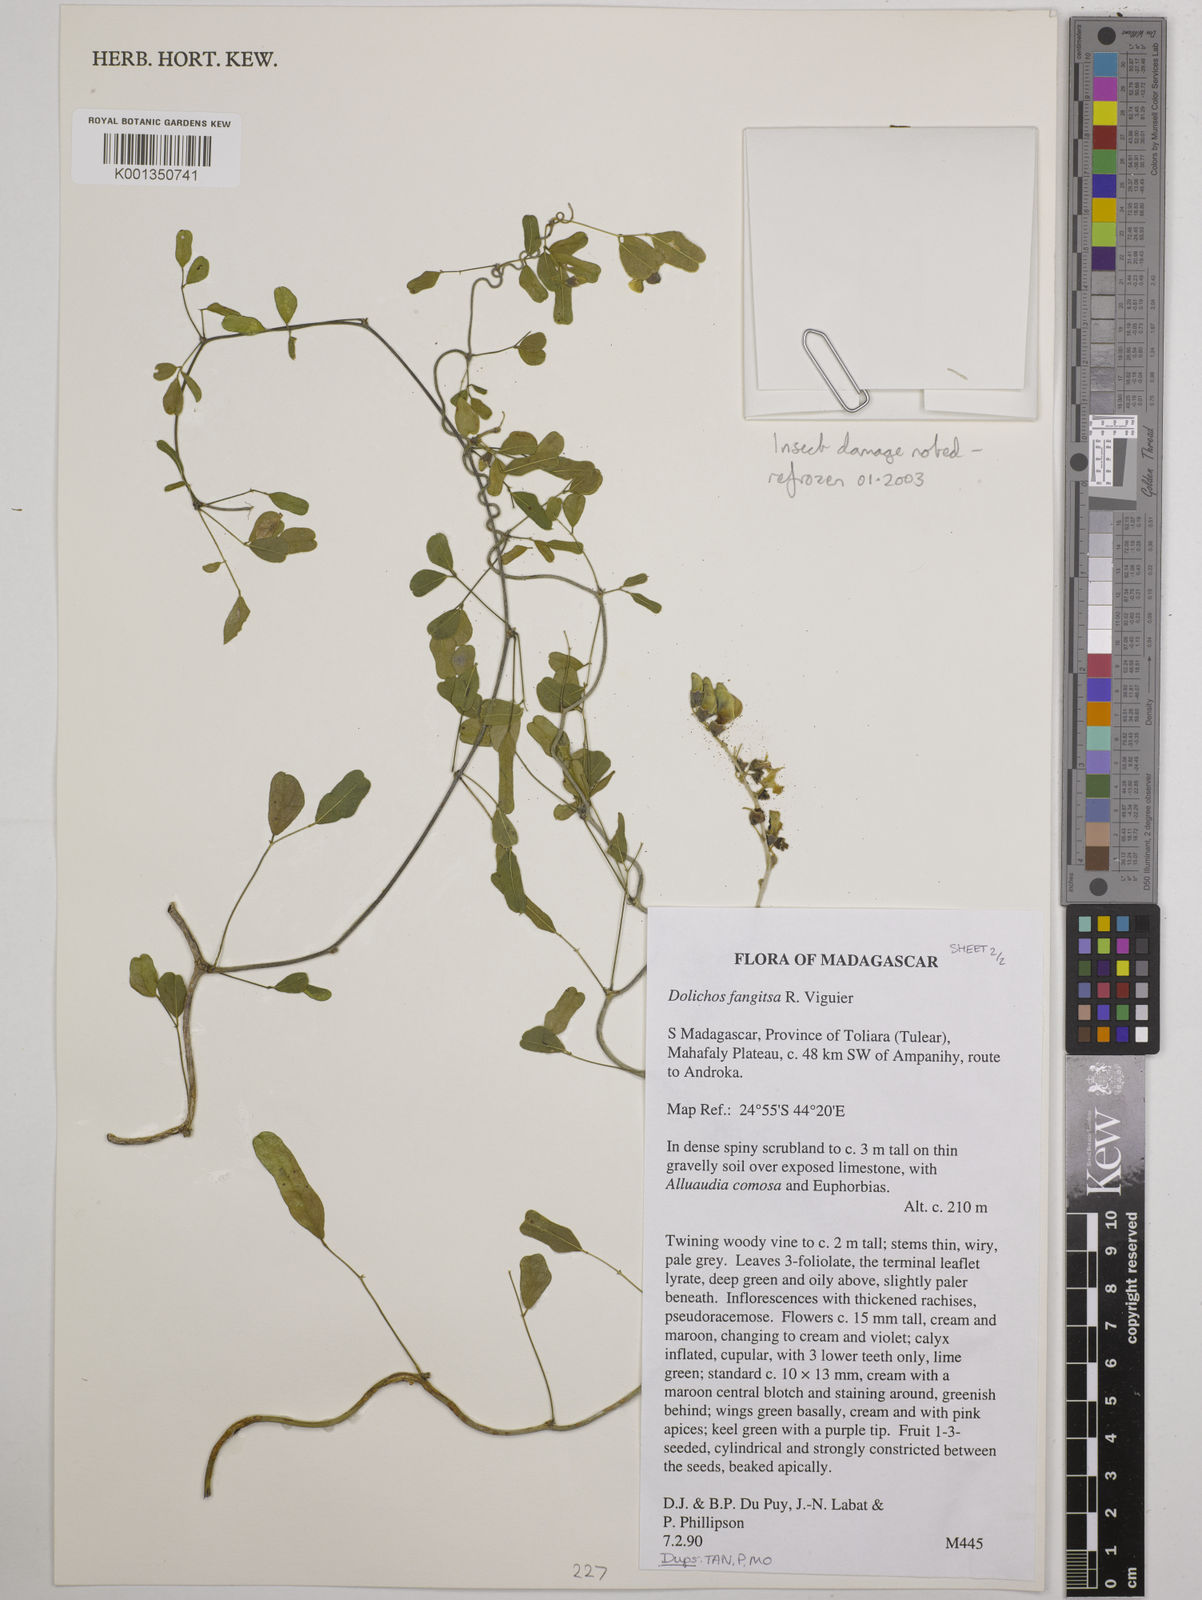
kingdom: Plantae
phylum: Tracheophyta
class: Magnoliopsida
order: Fabales
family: Fabaceae
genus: Dolichos
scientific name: Dolichos fangitsa
